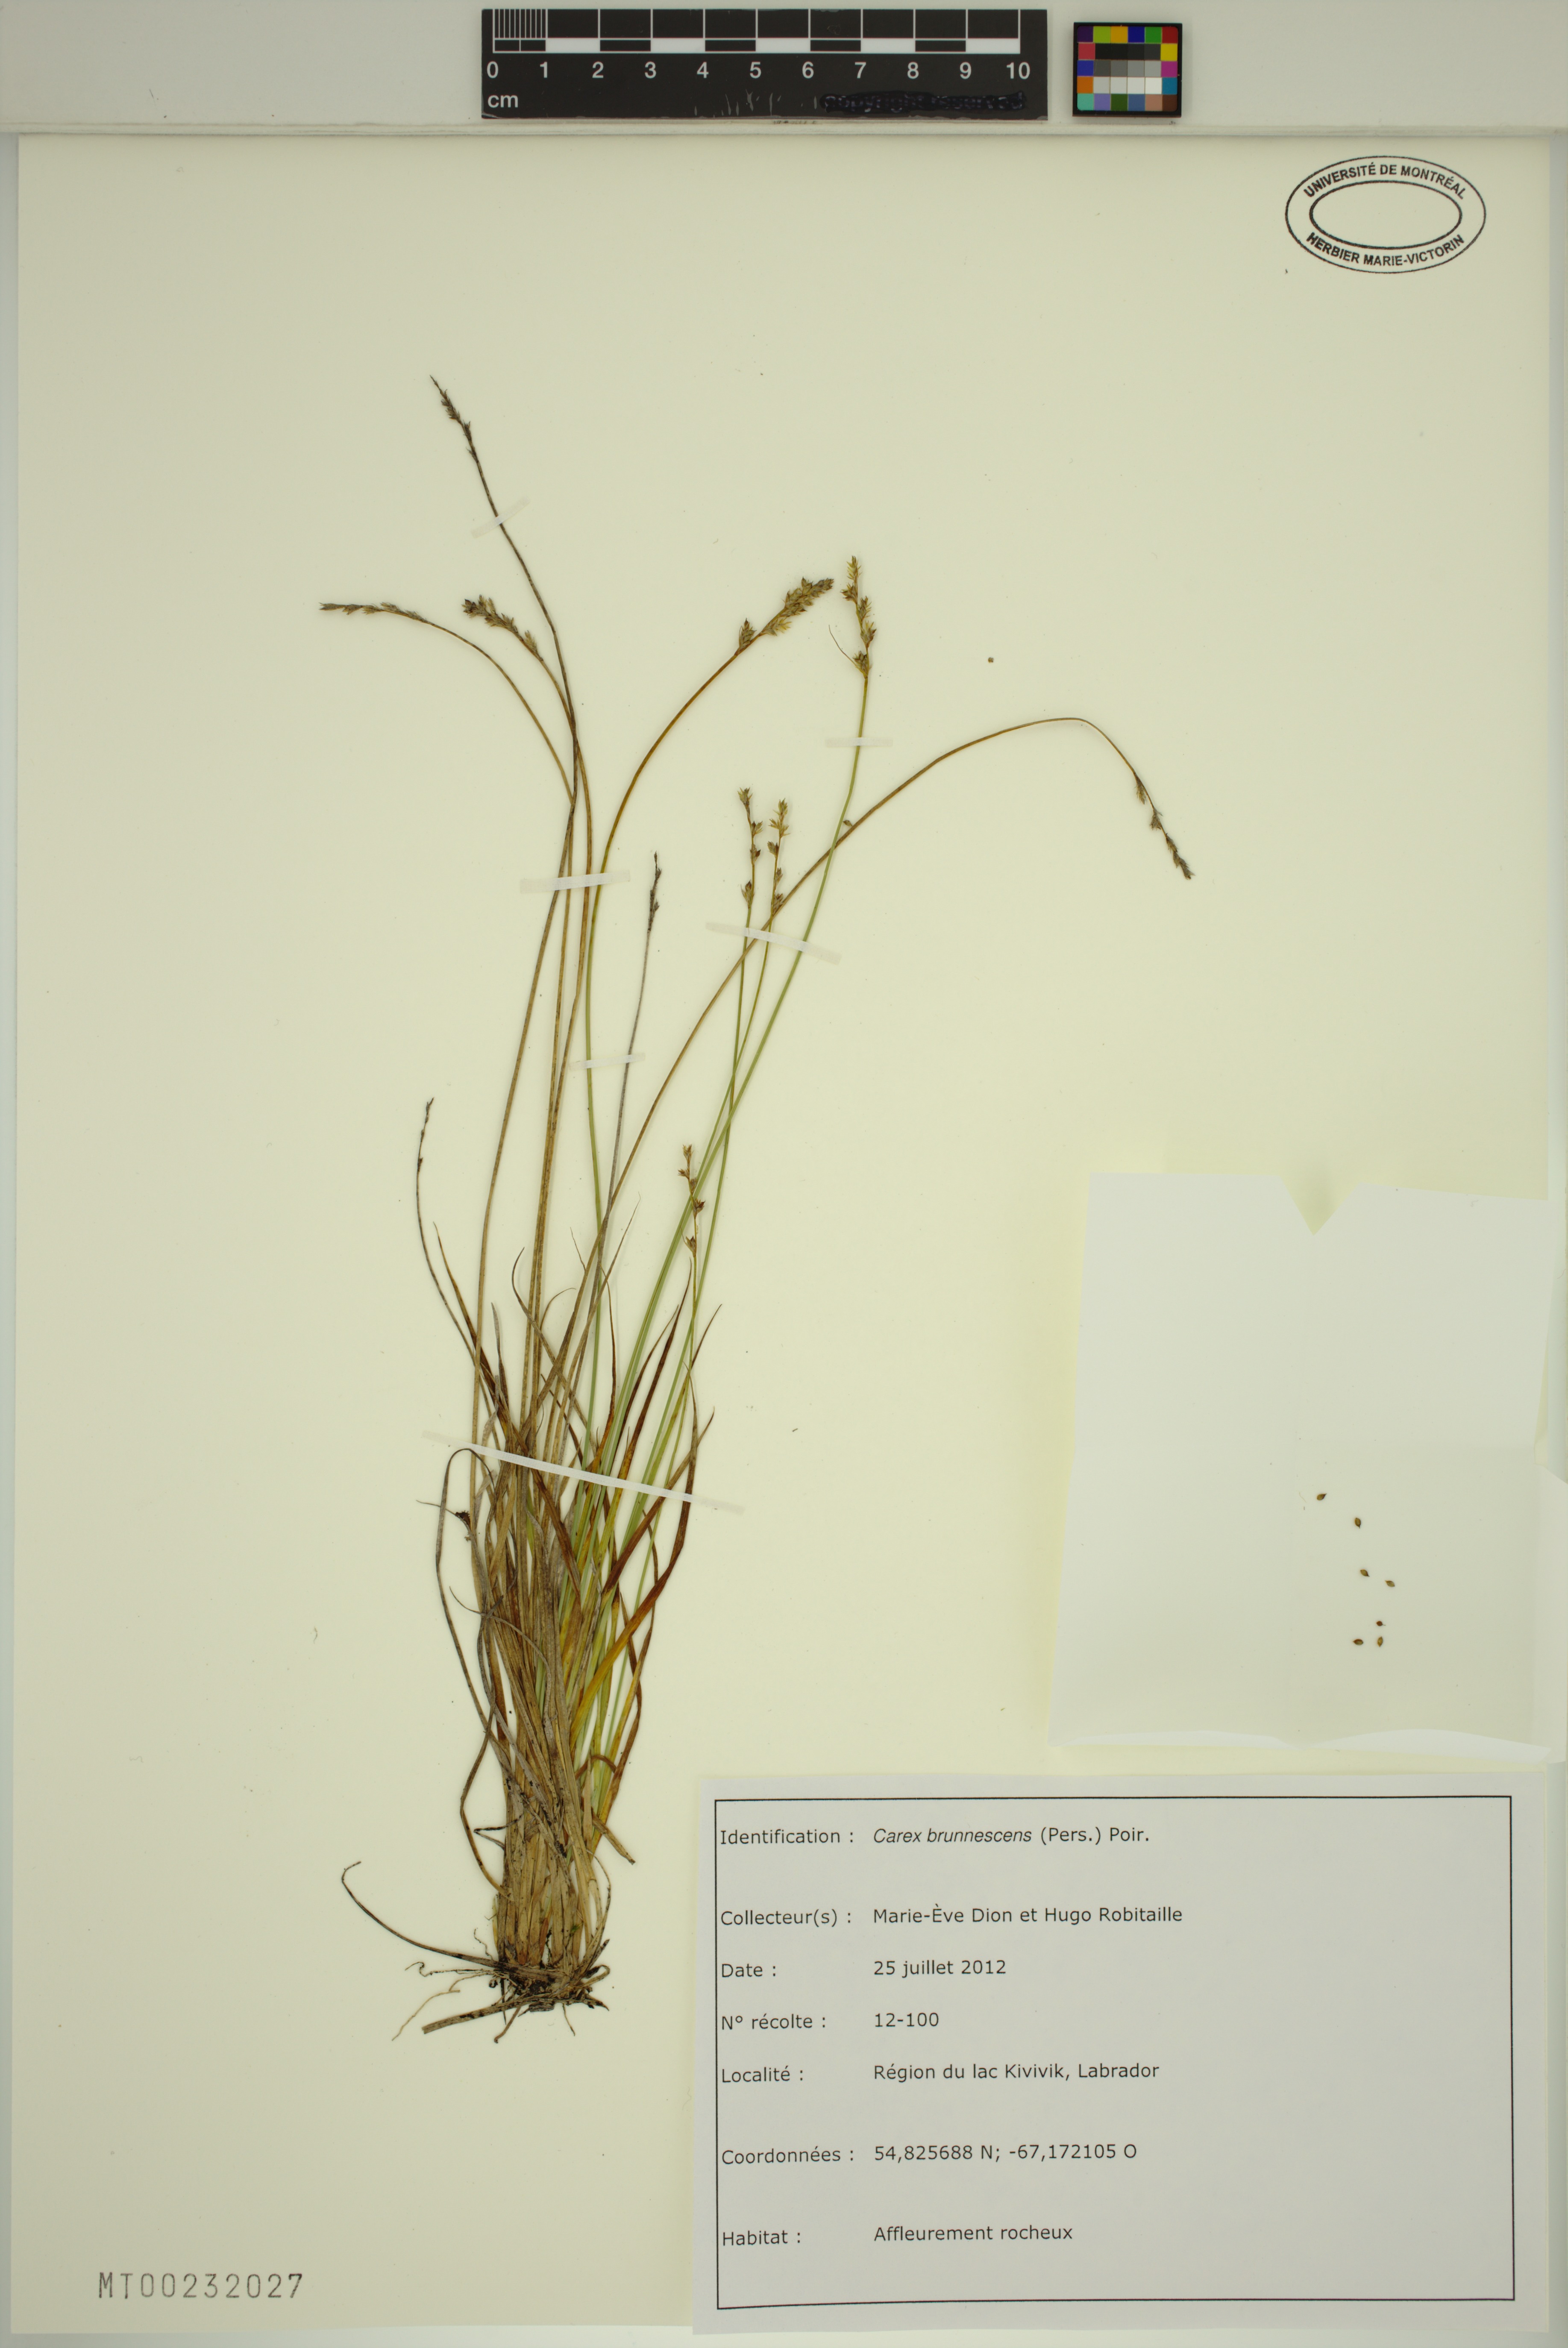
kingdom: Plantae
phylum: Tracheophyta
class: Liliopsida
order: Poales
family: Cyperaceae
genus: Carex
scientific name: Carex brunnescens
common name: Brown sedge
